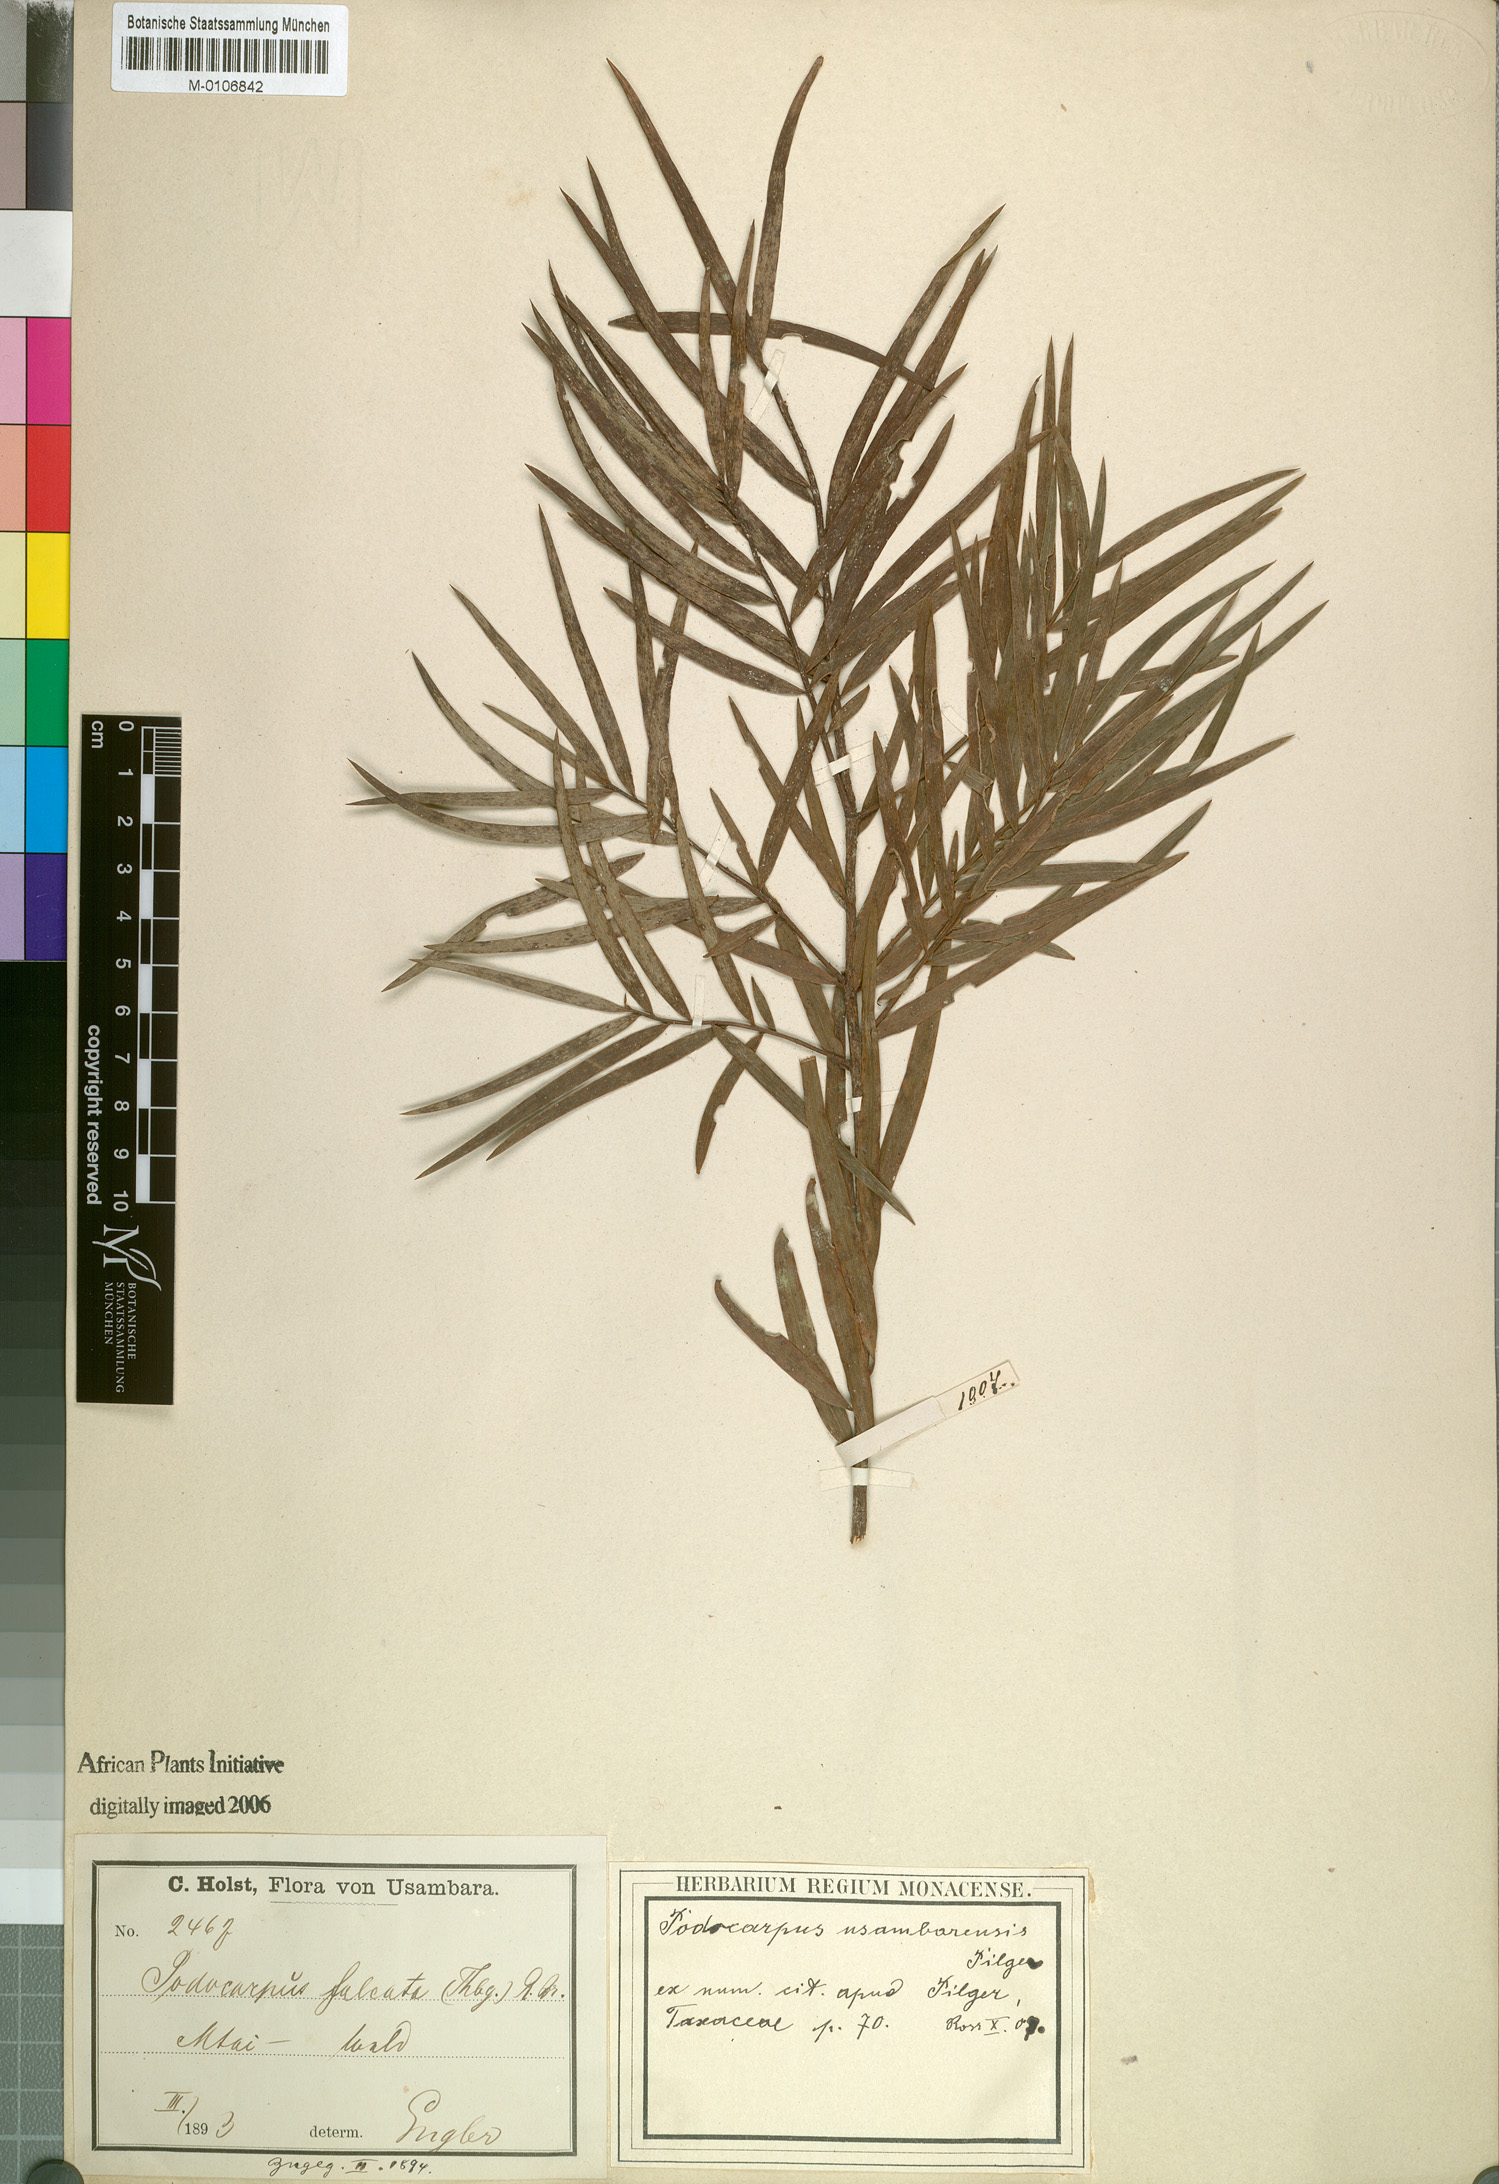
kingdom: Plantae
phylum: Tracheophyta
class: Pinopsida
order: Pinales
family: Podocarpaceae
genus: Afrocarpus
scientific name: Afrocarpus usambarensis
